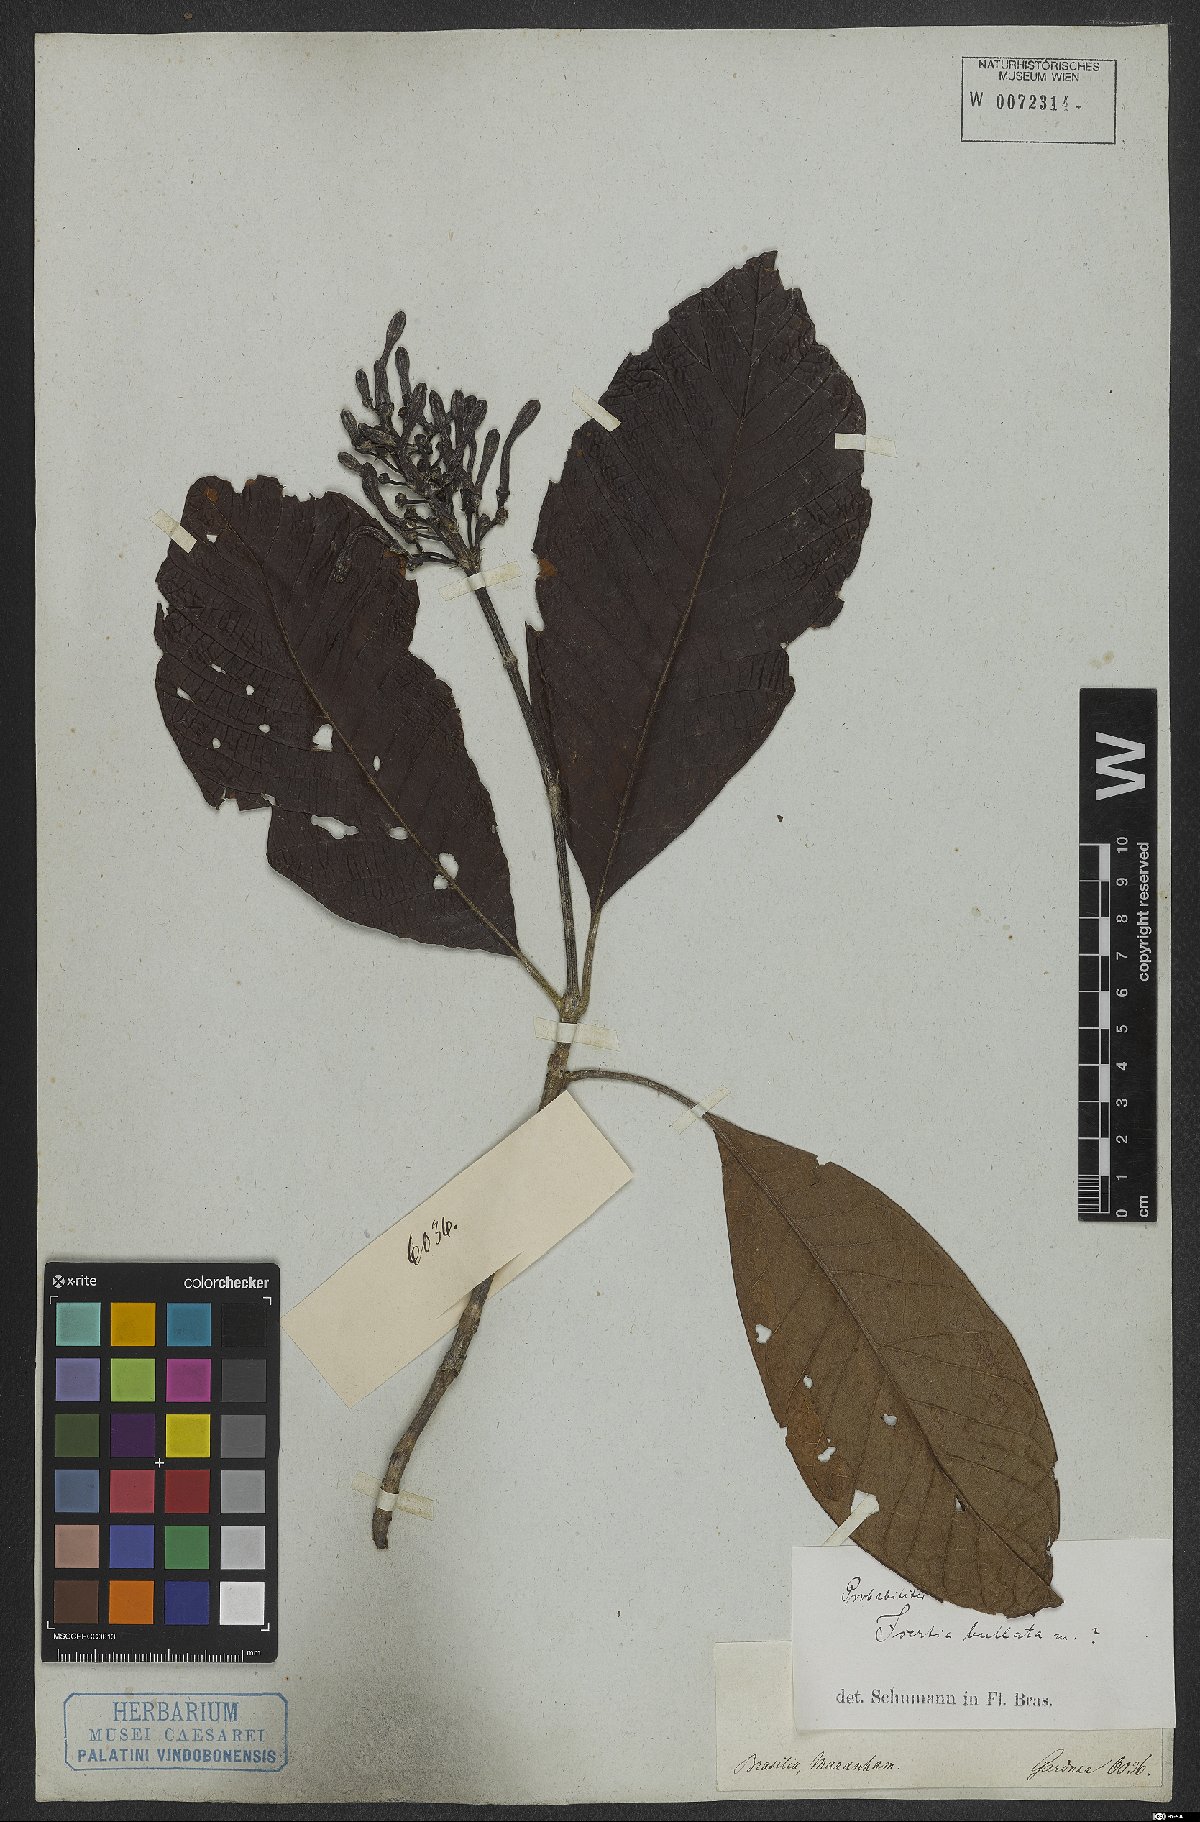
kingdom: Plantae
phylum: Tracheophyta
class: Magnoliopsida
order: Gentianales
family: Rubiaceae
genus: Isertia
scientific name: Isertia spiciformis
